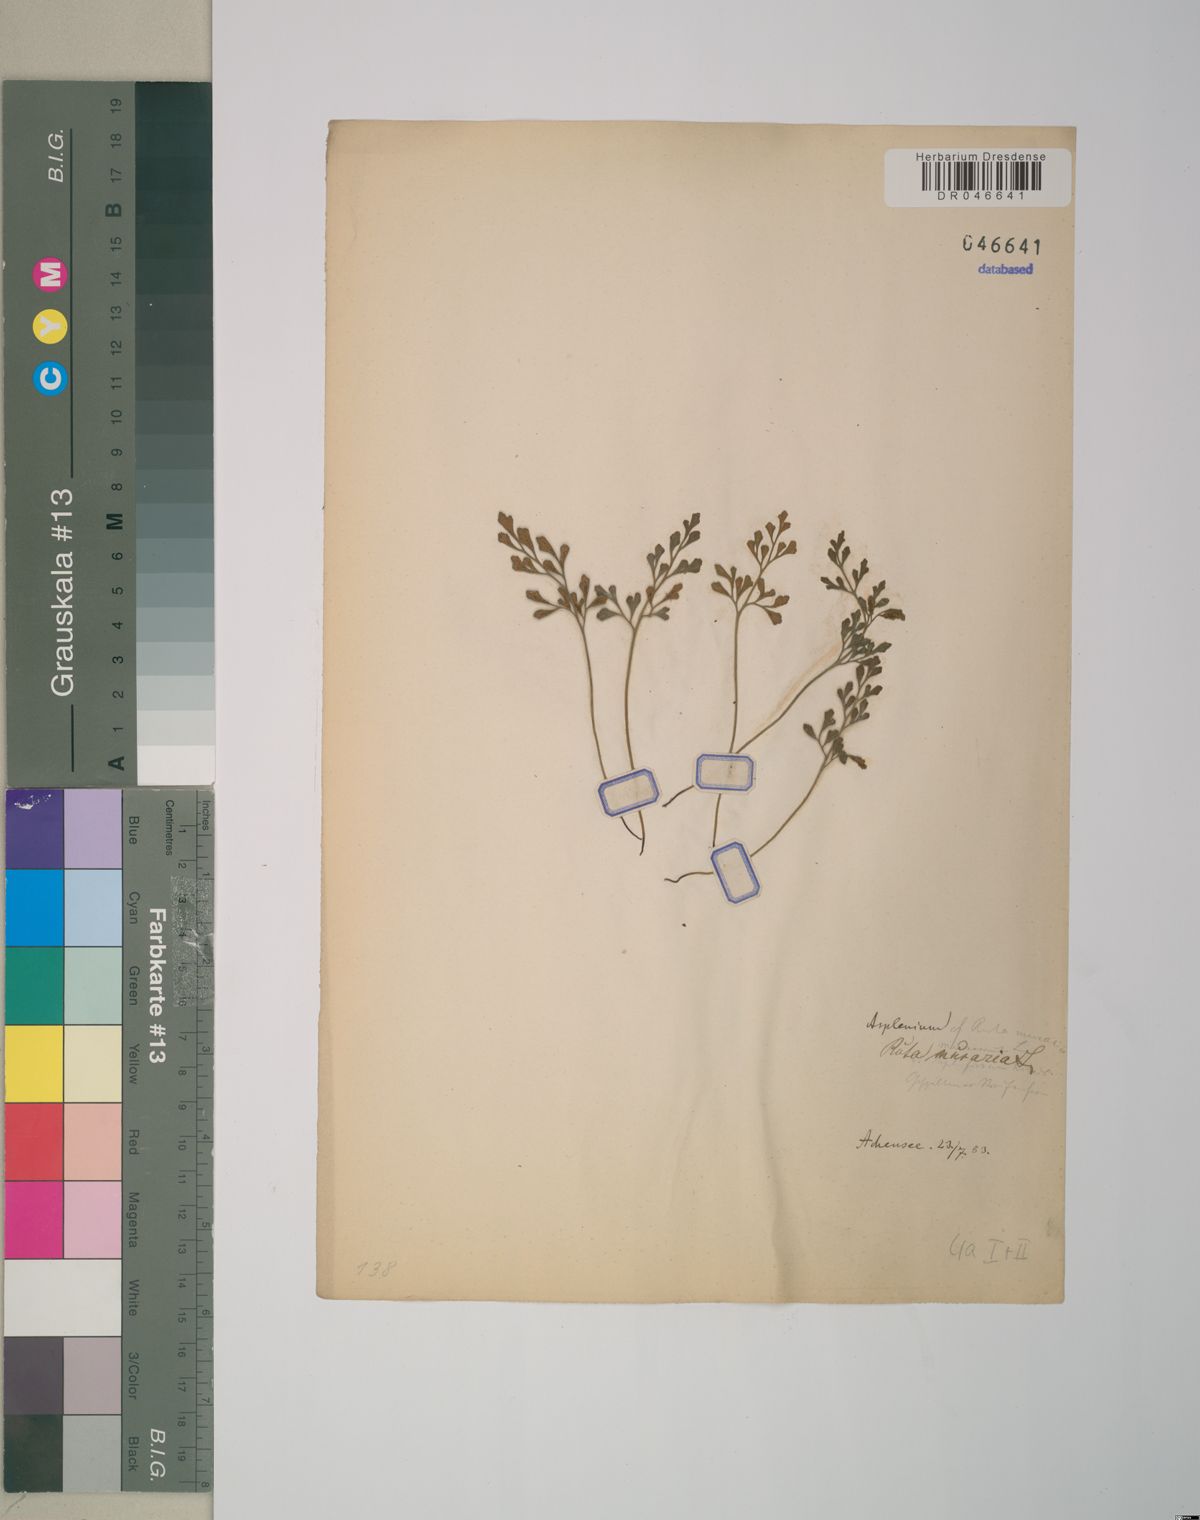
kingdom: Plantae
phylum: Tracheophyta
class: Polypodiopsida
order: Polypodiales
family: Aspleniaceae
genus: Asplenium
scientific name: Asplenium ruta-muraria
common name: Wall-rue
